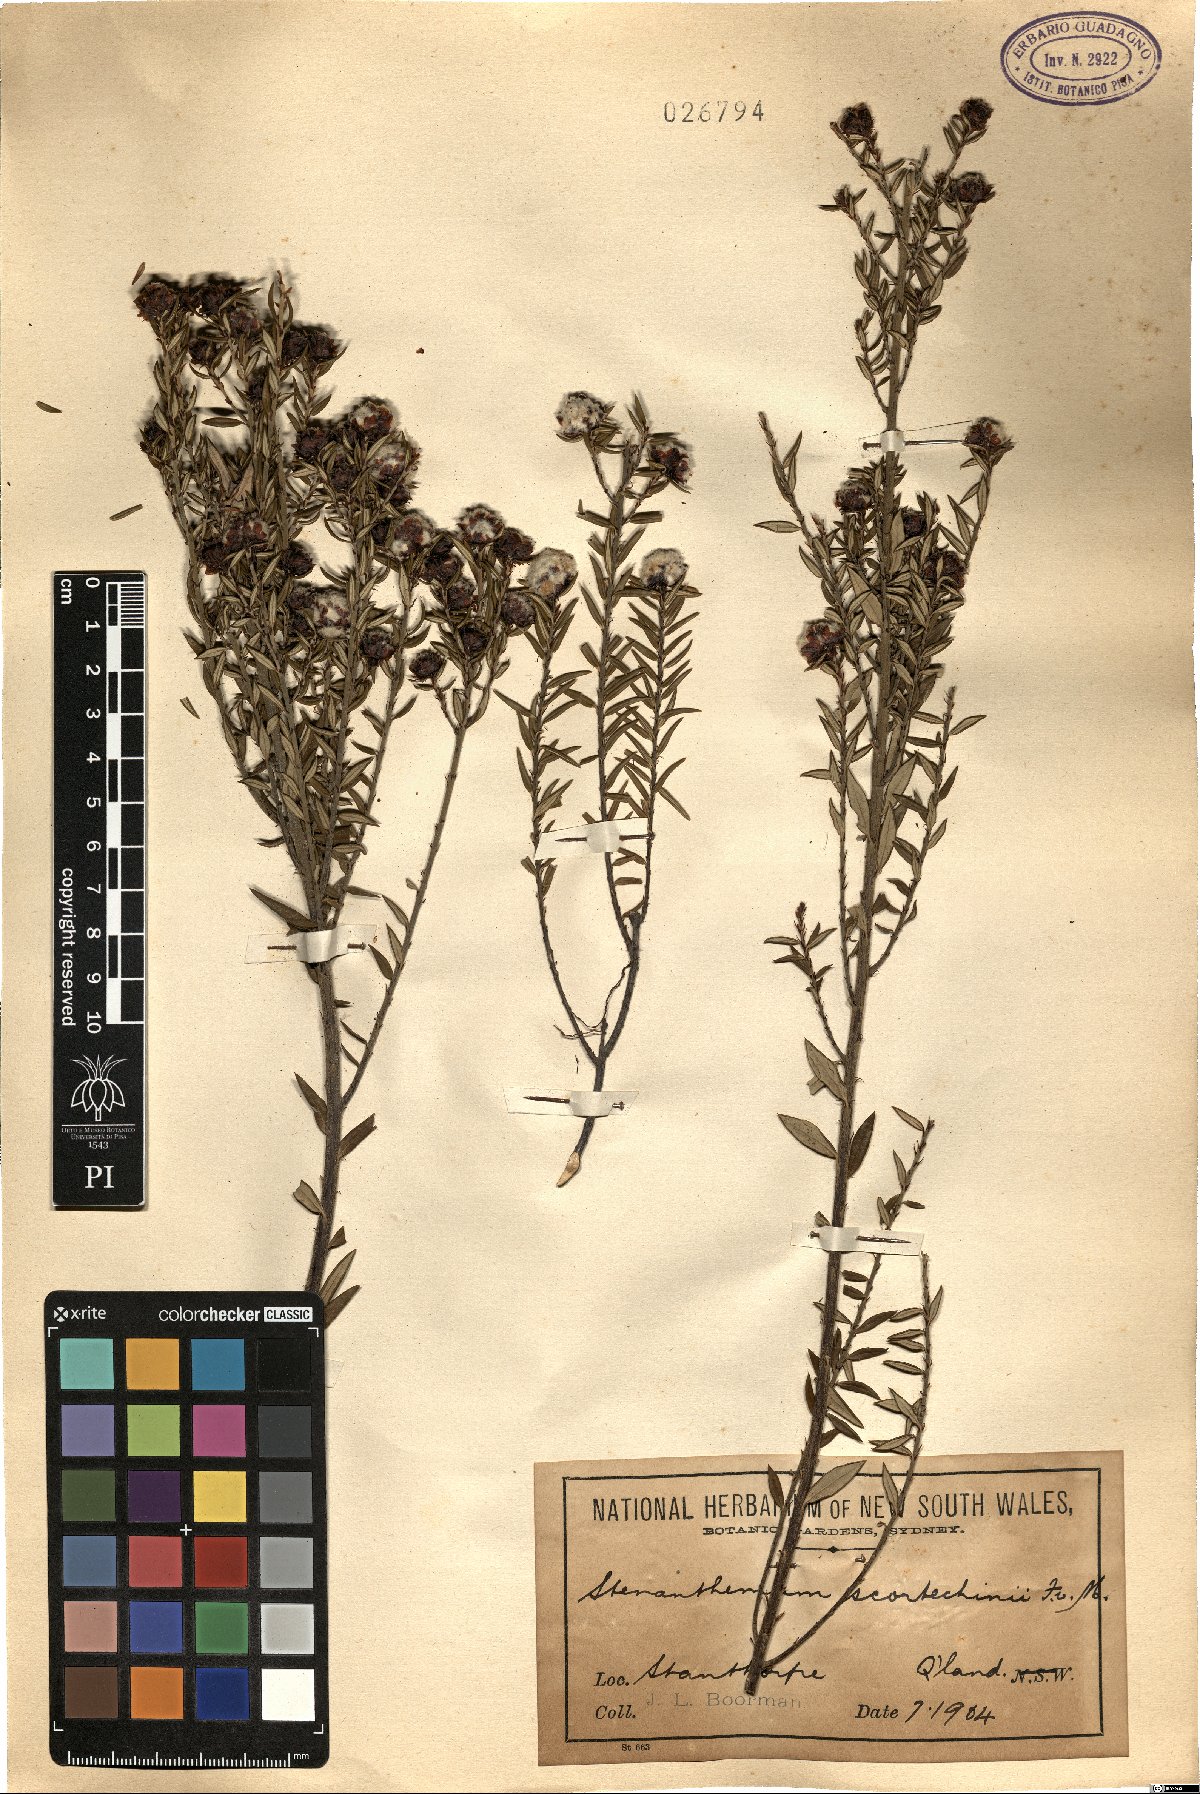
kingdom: Plantae
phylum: Tracheophyta
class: Magnoliopsida
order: Rosales
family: Rhamnaceae
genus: Spyridium
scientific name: Spyridium scortechinii
